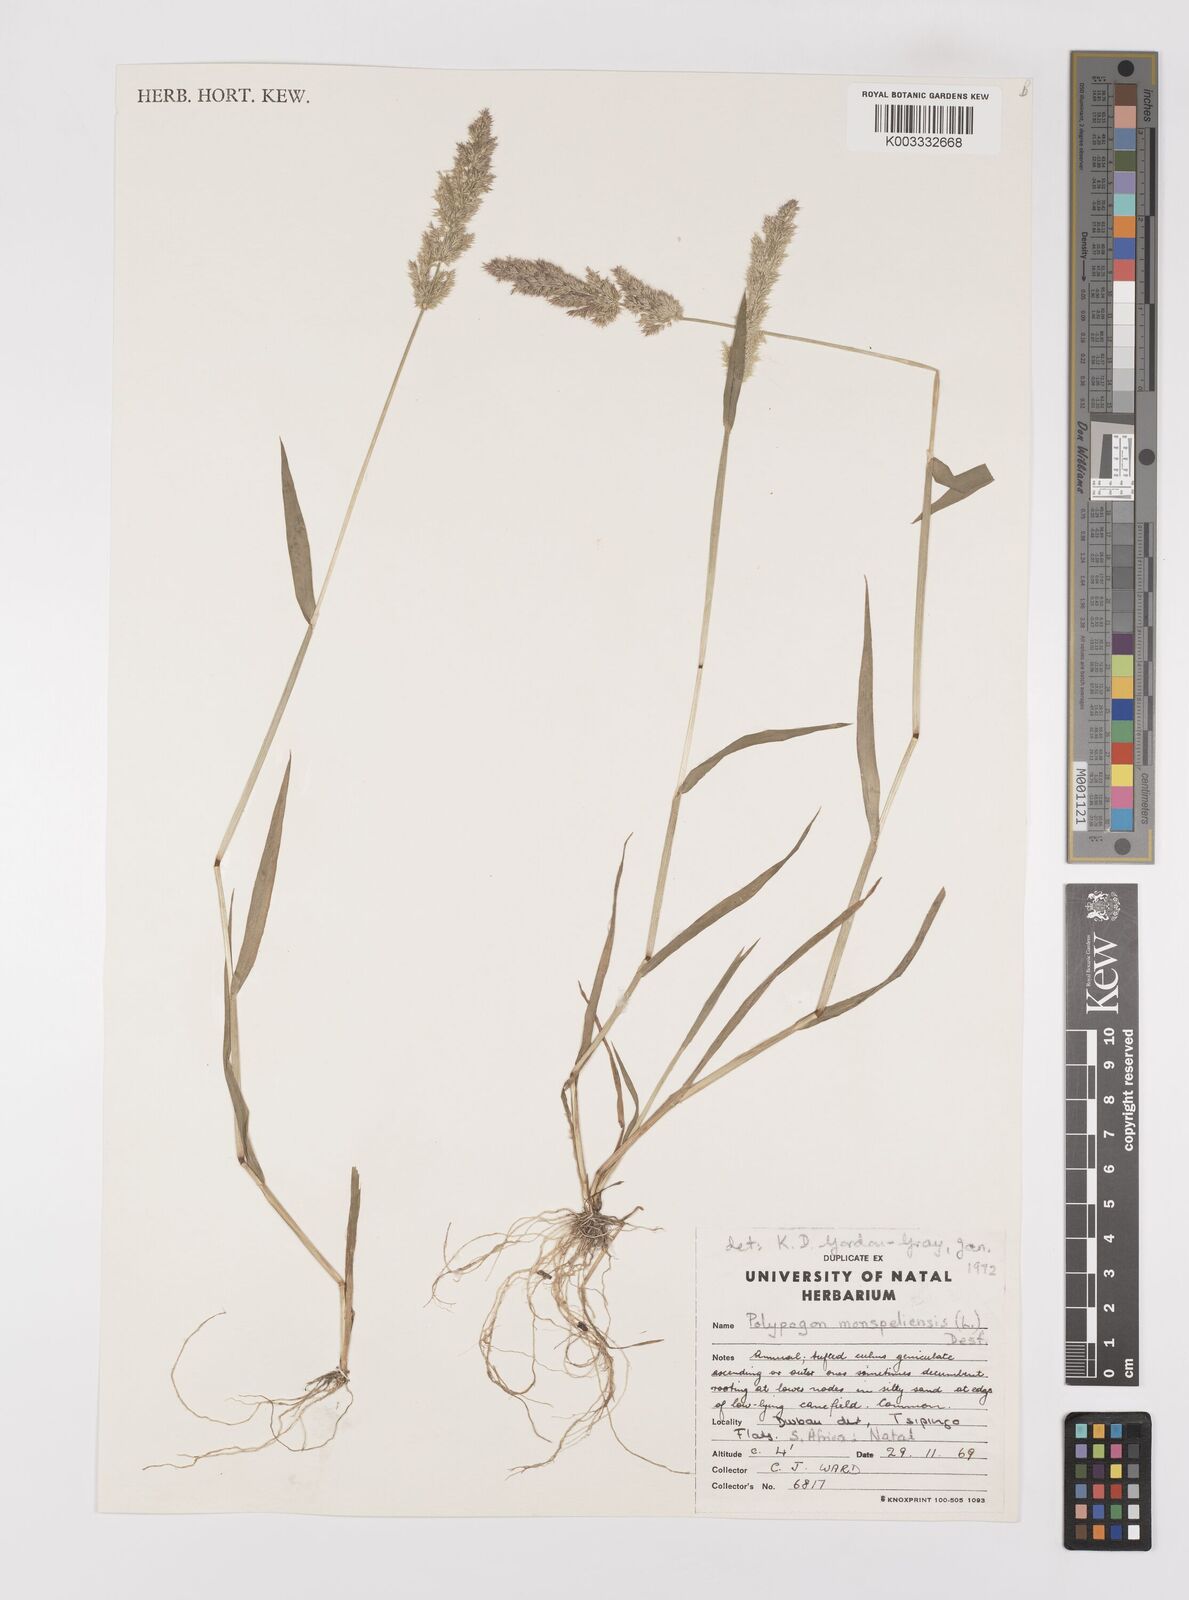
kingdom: Plantae
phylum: Tracheophyta
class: Liliopsida
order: Poales
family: Poaceae
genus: Polypogon
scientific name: Polypogon monspeliensis
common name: Annual rabbitsfoot grass
